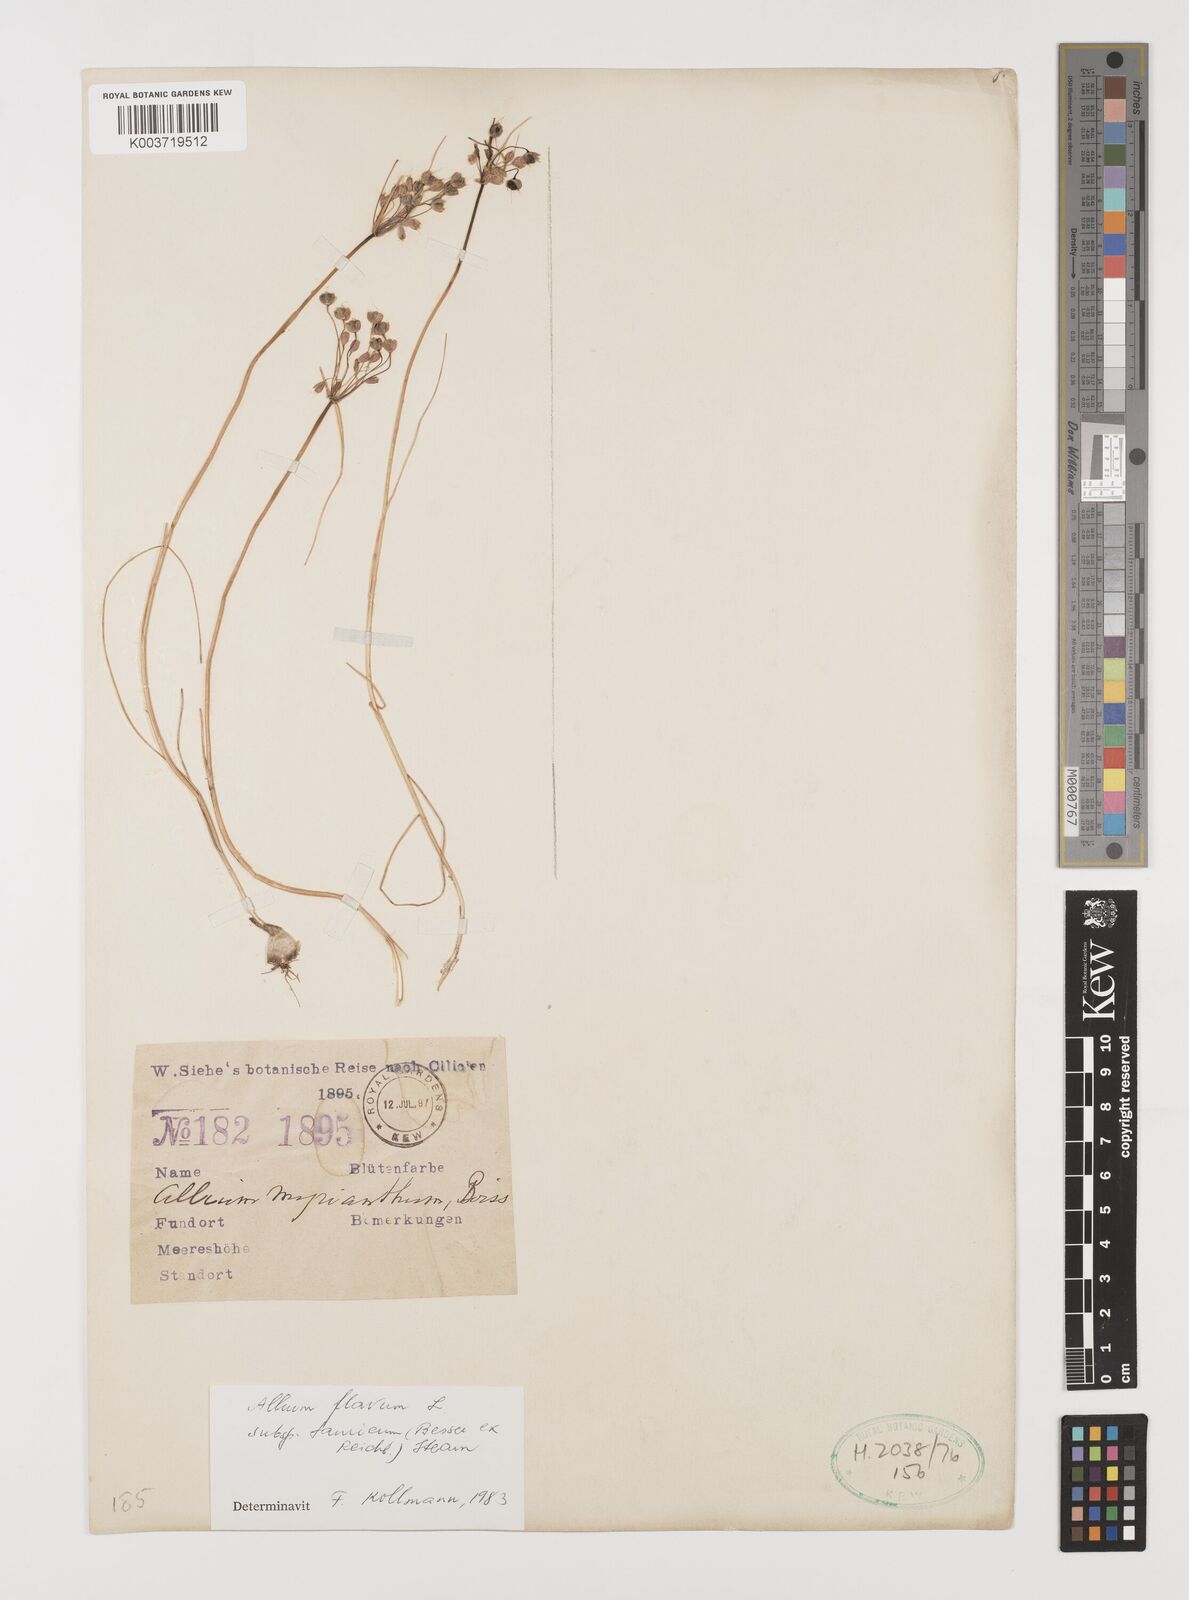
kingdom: Plantae
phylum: Tracheophyta
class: Liliopsida
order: Asparagales
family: Amaryllidaceae
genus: Allium
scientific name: Allium flavum
